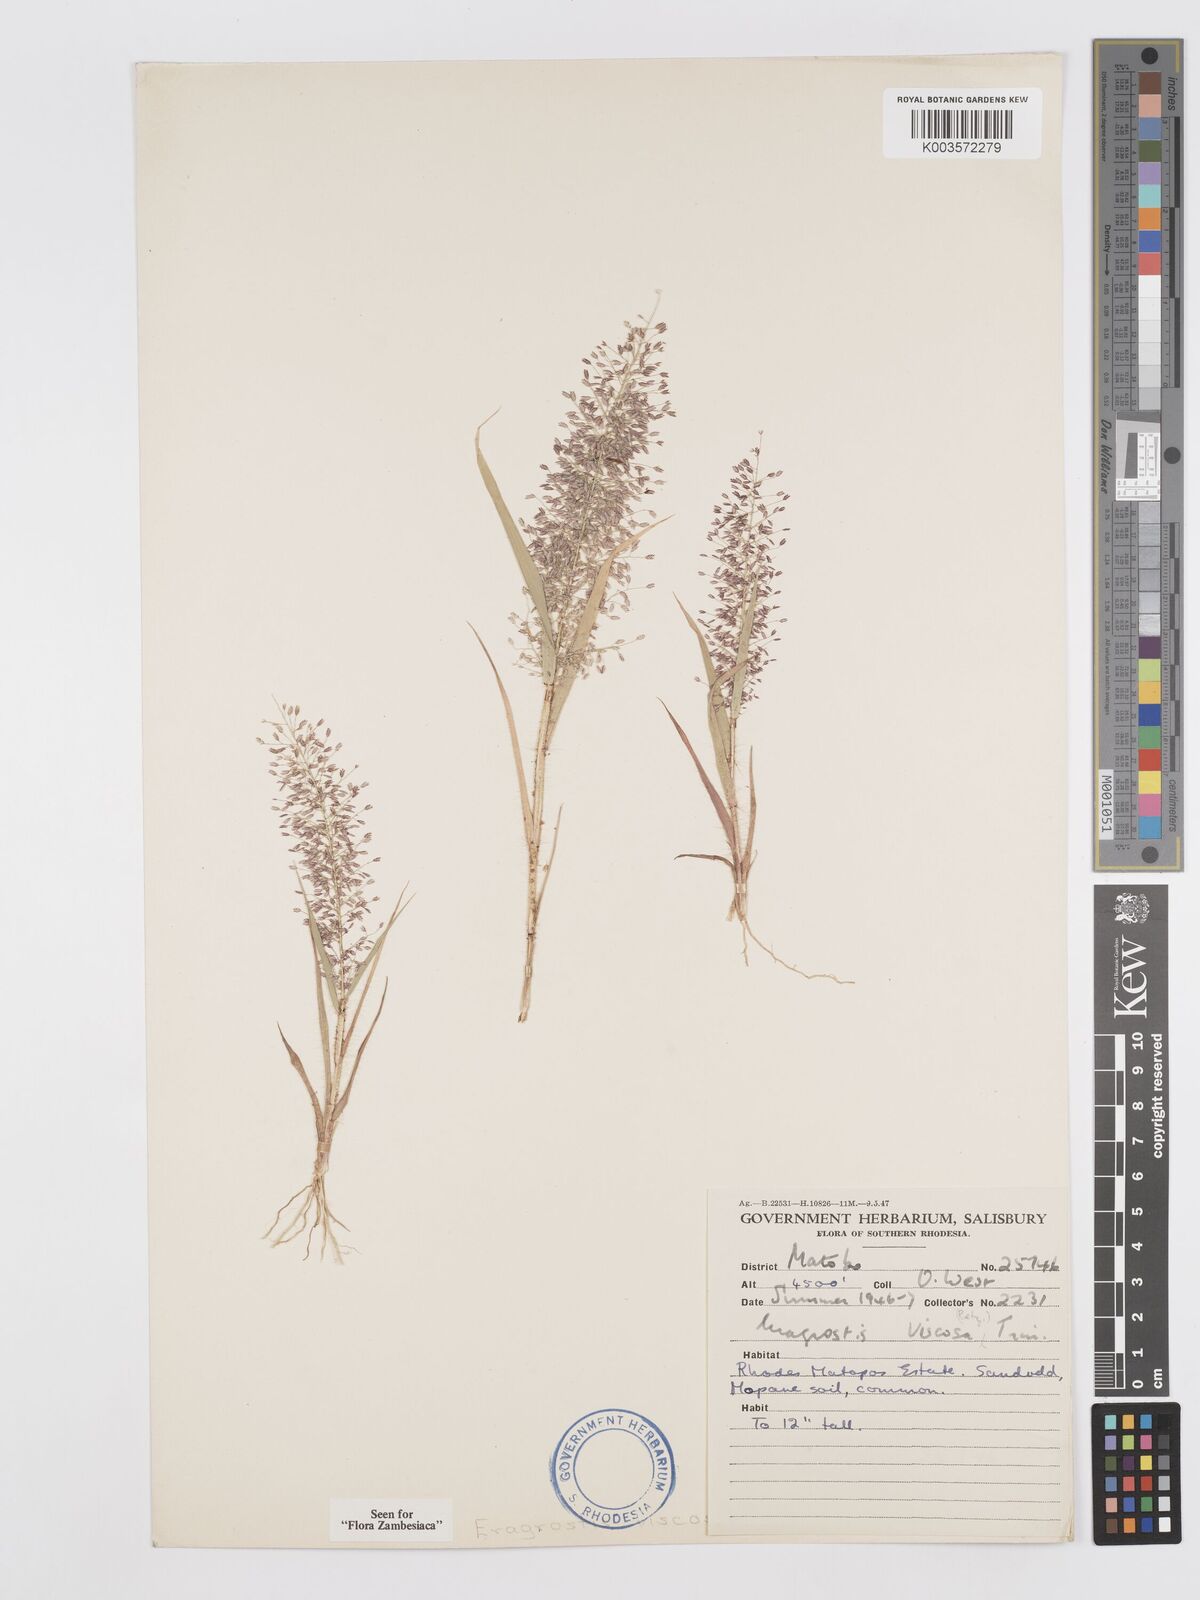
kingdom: Plantae
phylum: Tracheophyta
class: Liliopsida
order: Poales
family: Poaceae
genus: Eragrostis
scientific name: Eragrostis
